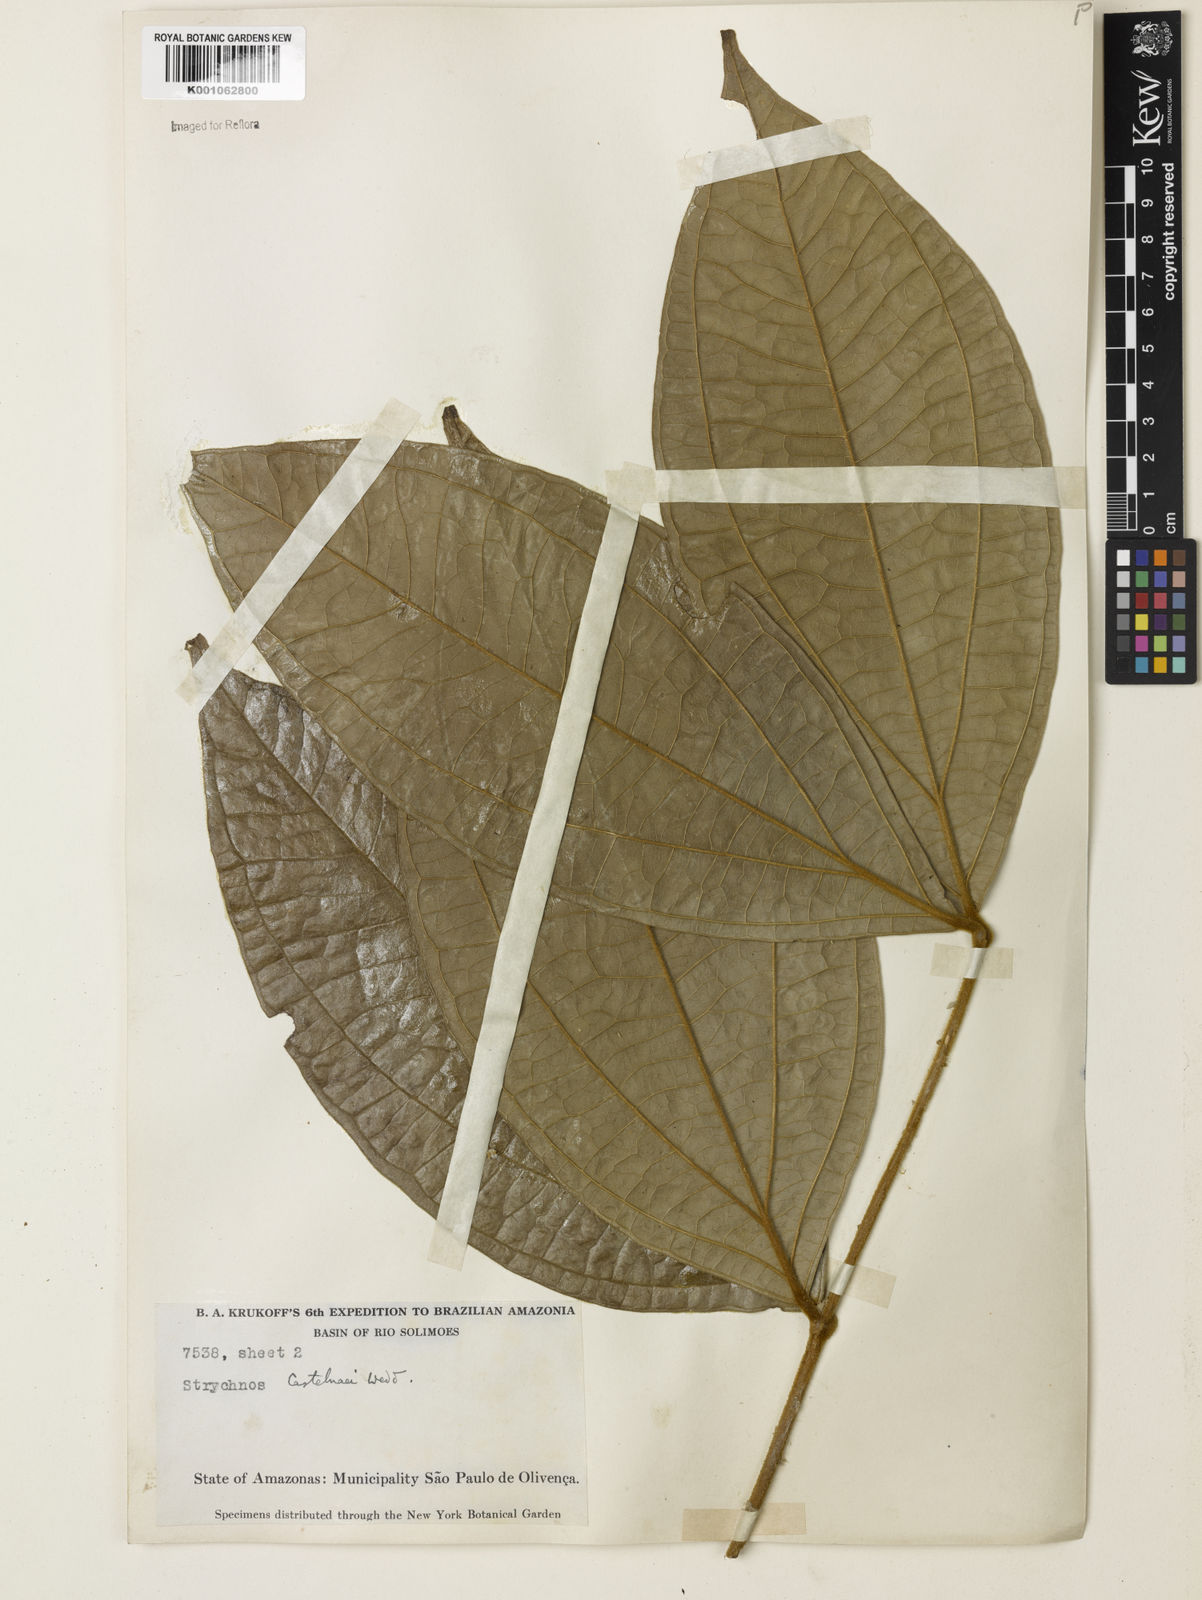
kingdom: Plantae
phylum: Tracheophyta
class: Magnoliopsida
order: Gentianales
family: Loganiaceae
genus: Strychnos
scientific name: Strychnos
